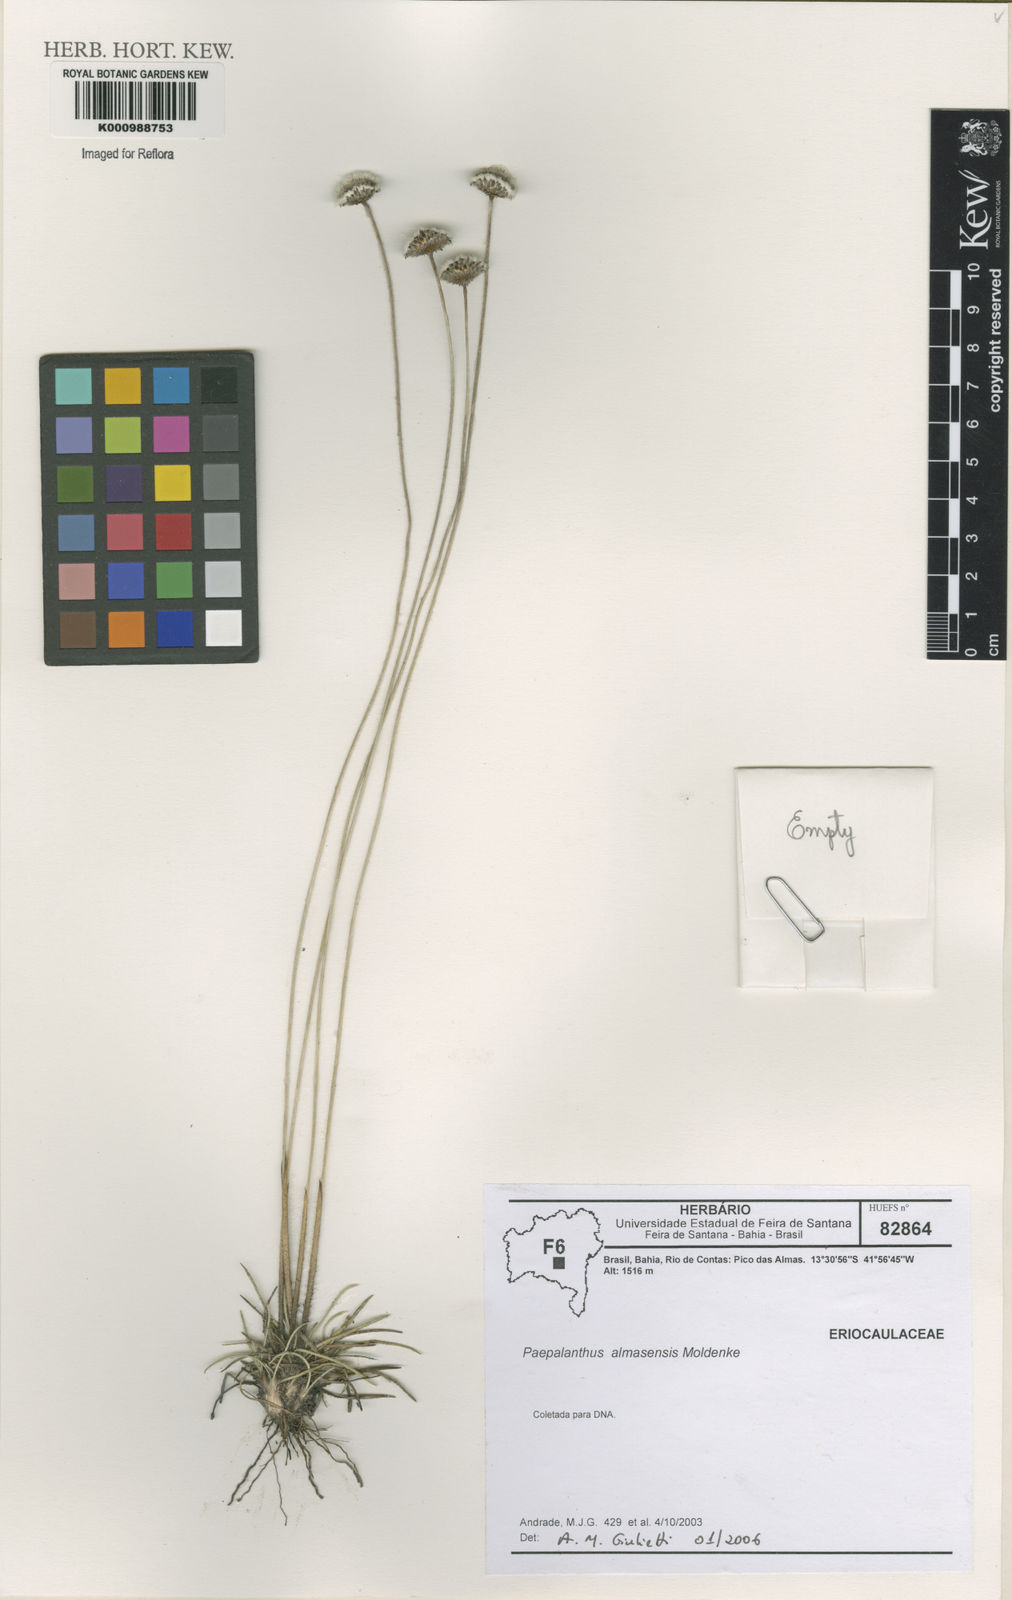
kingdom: Plantae
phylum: Tracheophyta
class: Liliopsida
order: Poales
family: Eriocaulaceae
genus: Paepalanthus
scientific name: Paepalanthus almasensis
